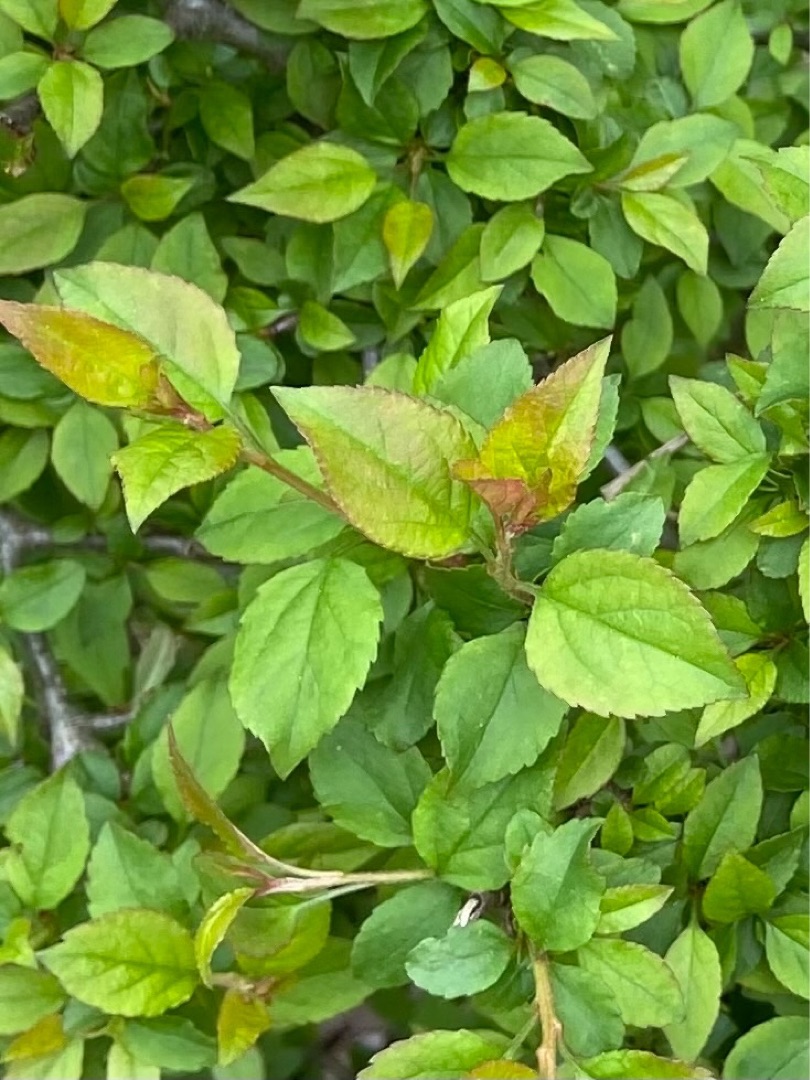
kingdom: Plantae
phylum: Tracheophyta
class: Magnoliopsida
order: Rosales
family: Rosaceae
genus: Prunus
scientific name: Prunus cerasifera
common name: Mirabel
